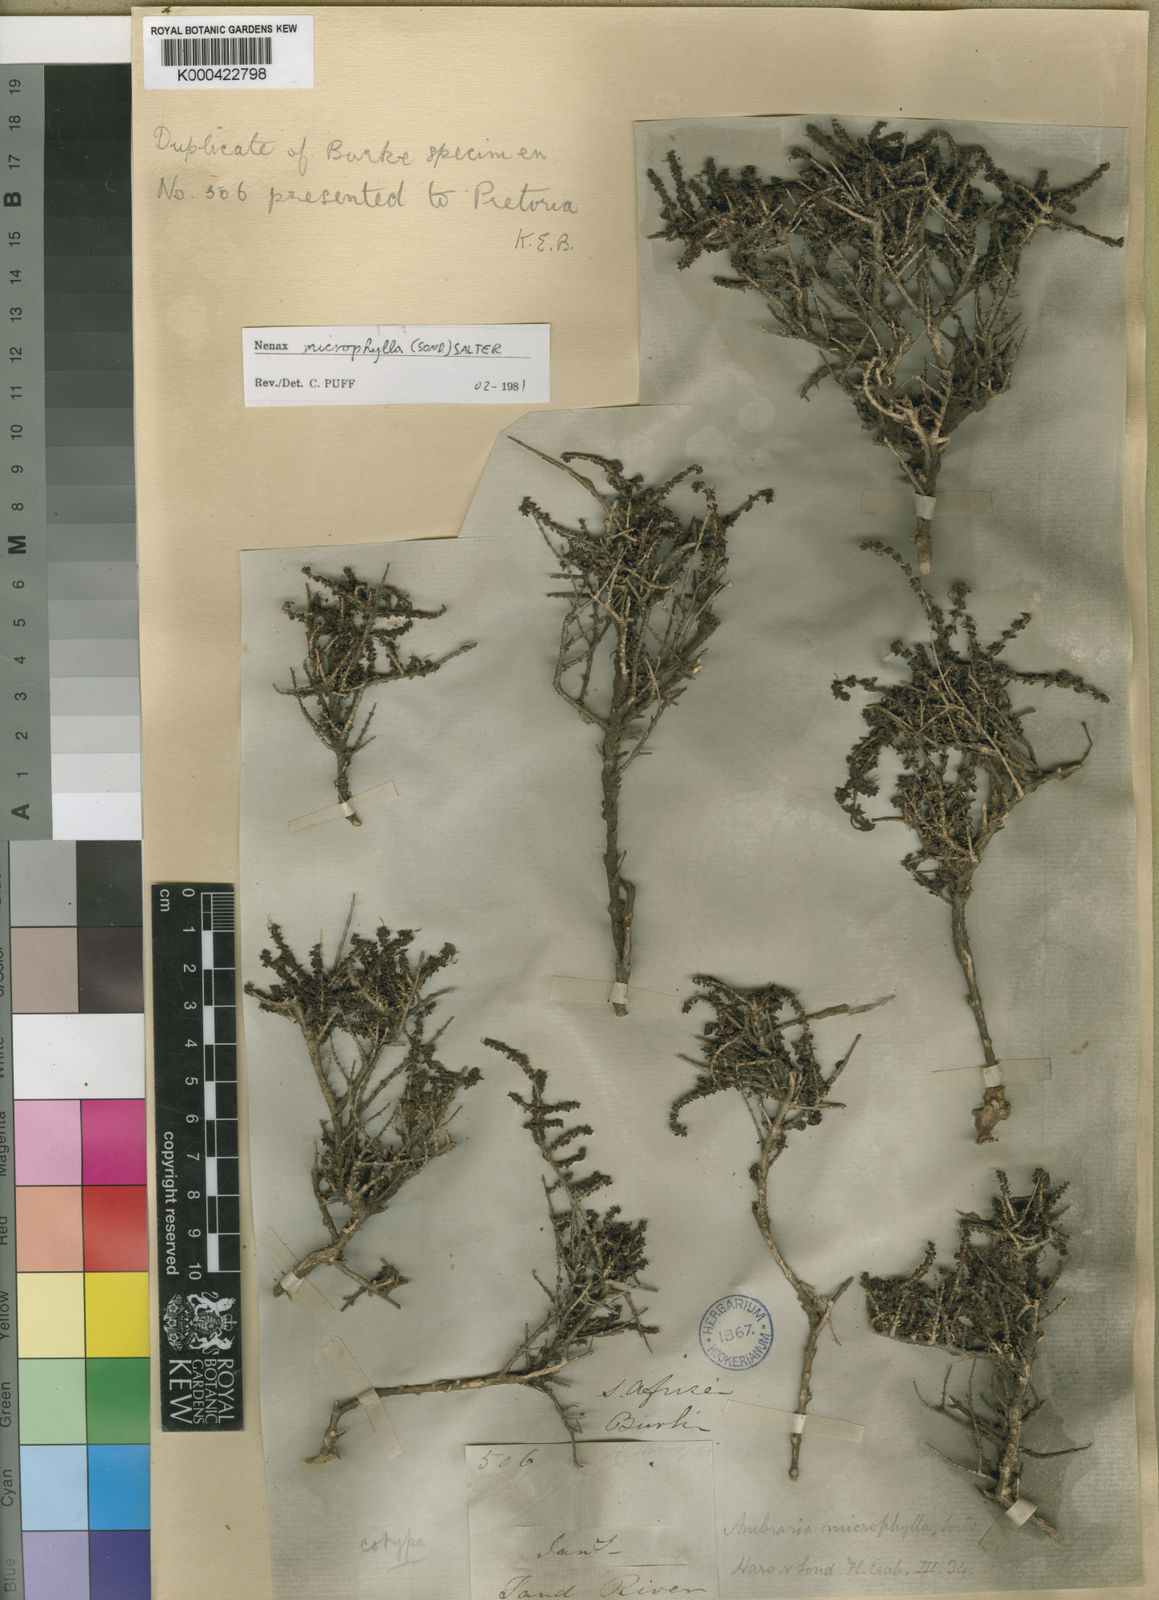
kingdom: Plantae
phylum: Tracheophyta
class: Magnoliopsida
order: Gentianales
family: Rubiaceae
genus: Nenax
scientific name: Nenax microphylla
